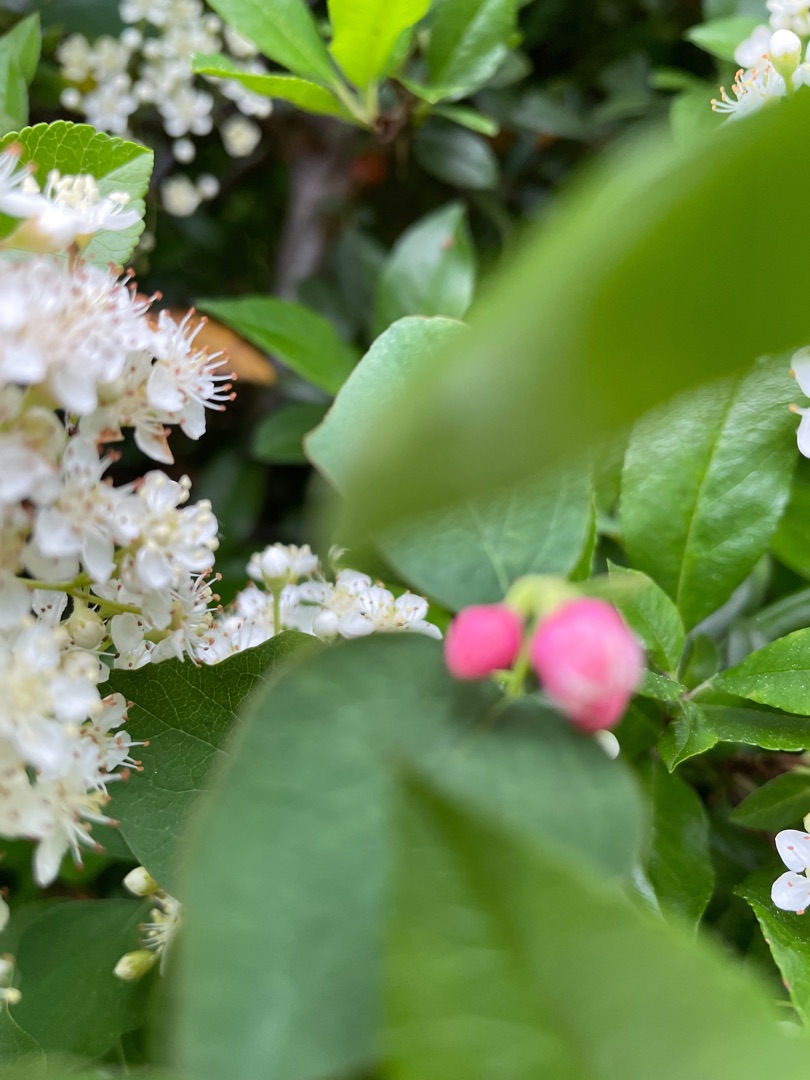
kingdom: Plantae
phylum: Tracheophyta
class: Magnoliopsida
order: Dipsacales
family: Caprifoliaceae
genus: Symphoricarpos
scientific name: Symphoricarpos albus
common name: Almindelig snebær
